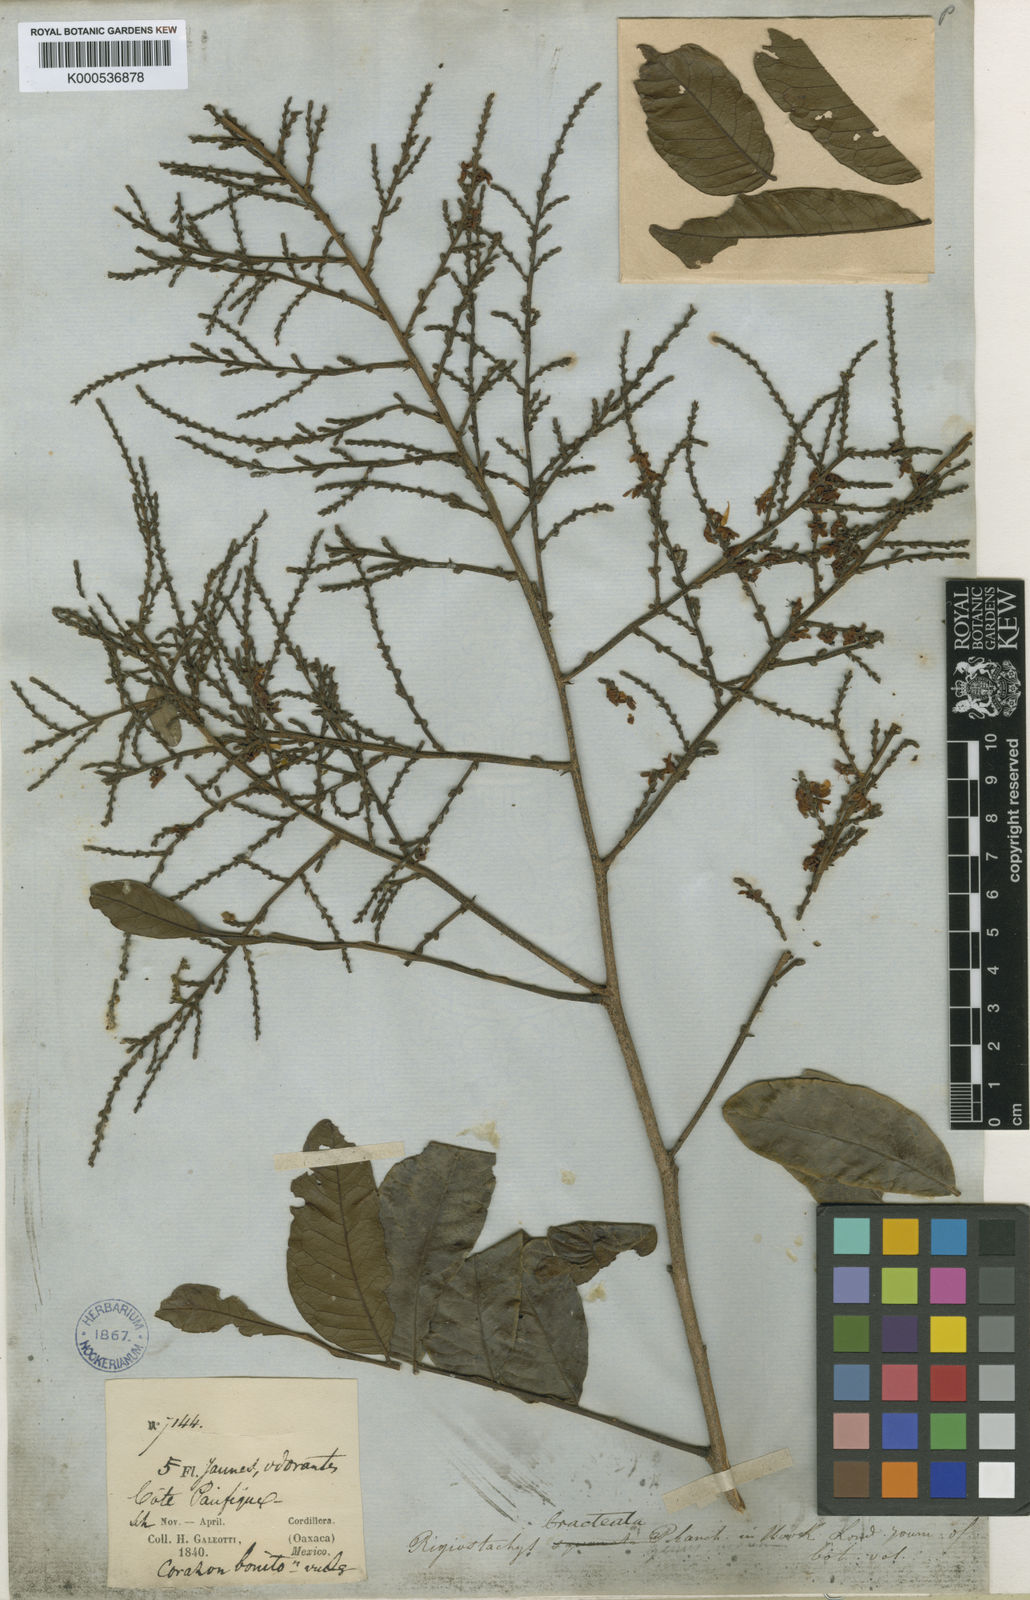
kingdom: Plantae
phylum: Tracheophyta
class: Magnoliopsida
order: Fabales
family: Surianaceae
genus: Recchia
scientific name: Recchia
